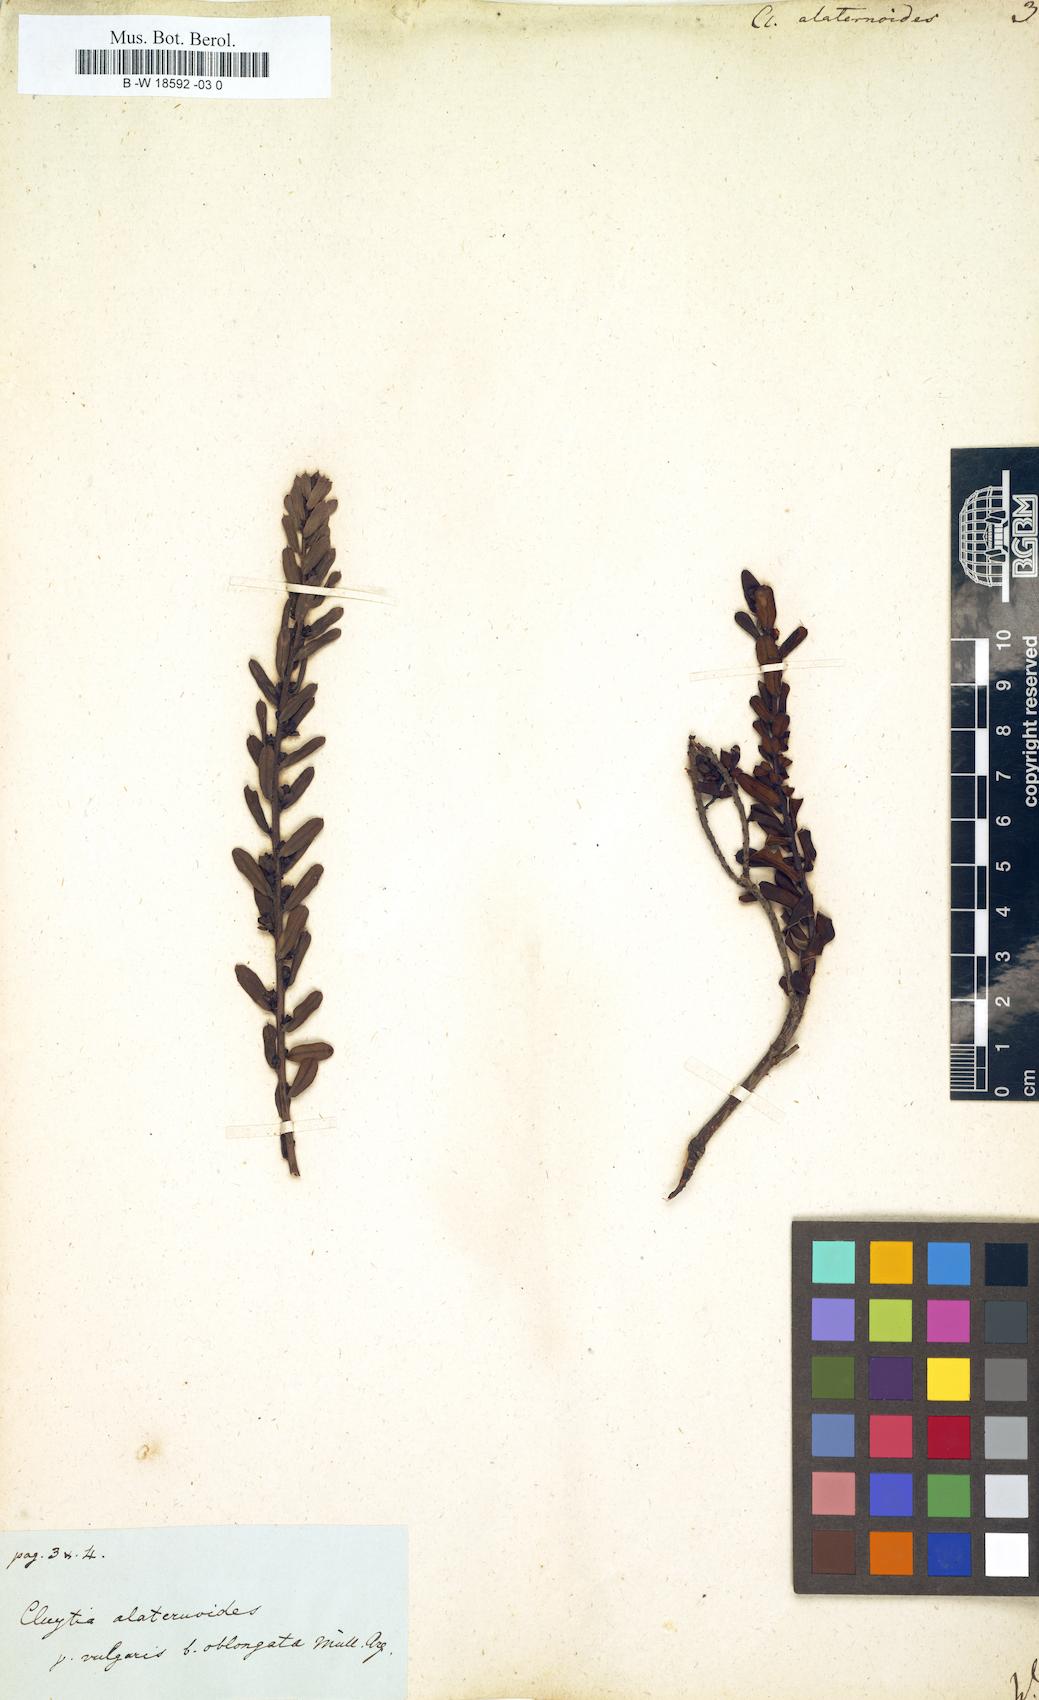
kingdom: Plantae
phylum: Tracheophyta
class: Magnoliopsida
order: Malpighiales
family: Peraceae
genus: Clutia
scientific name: Clutia
